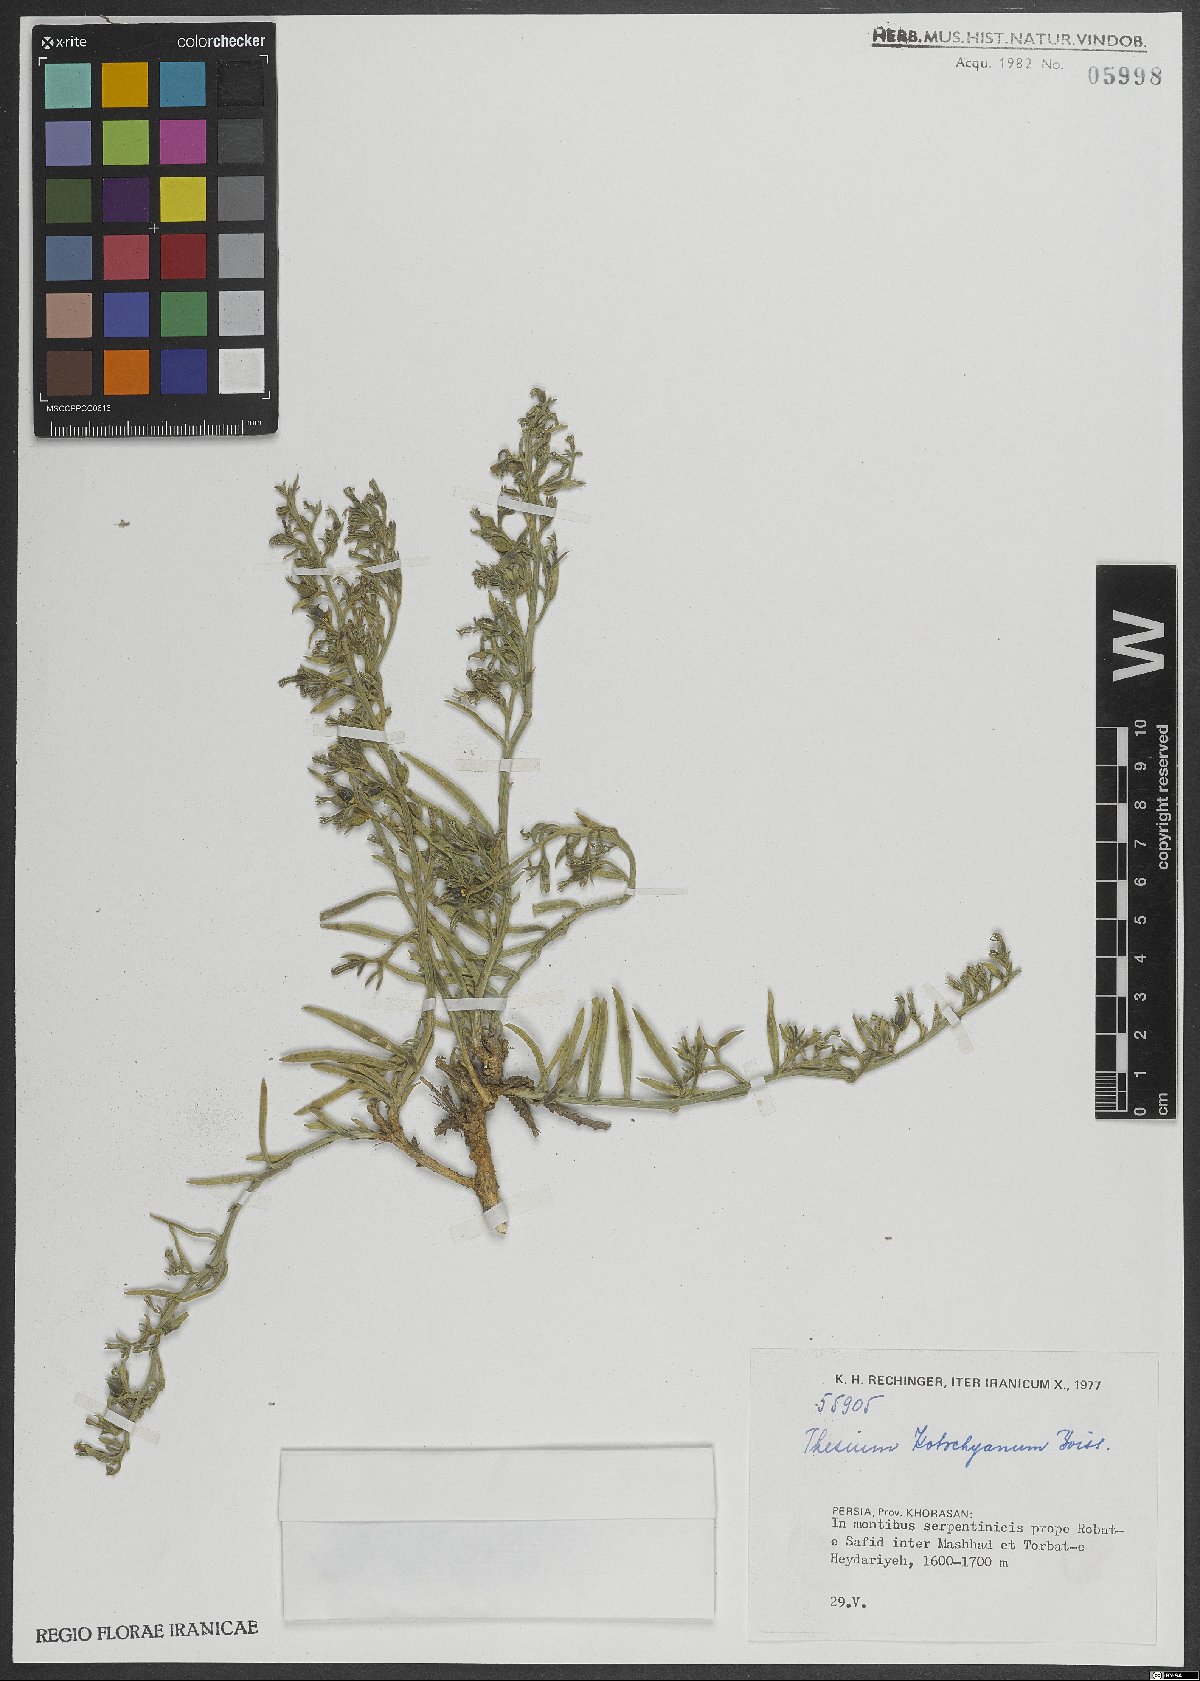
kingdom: Plantae
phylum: Tracheophyta
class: Magnoliopsida
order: Santalales
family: Thesiaceae
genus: Thesium
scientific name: Thesium kotschyanum
